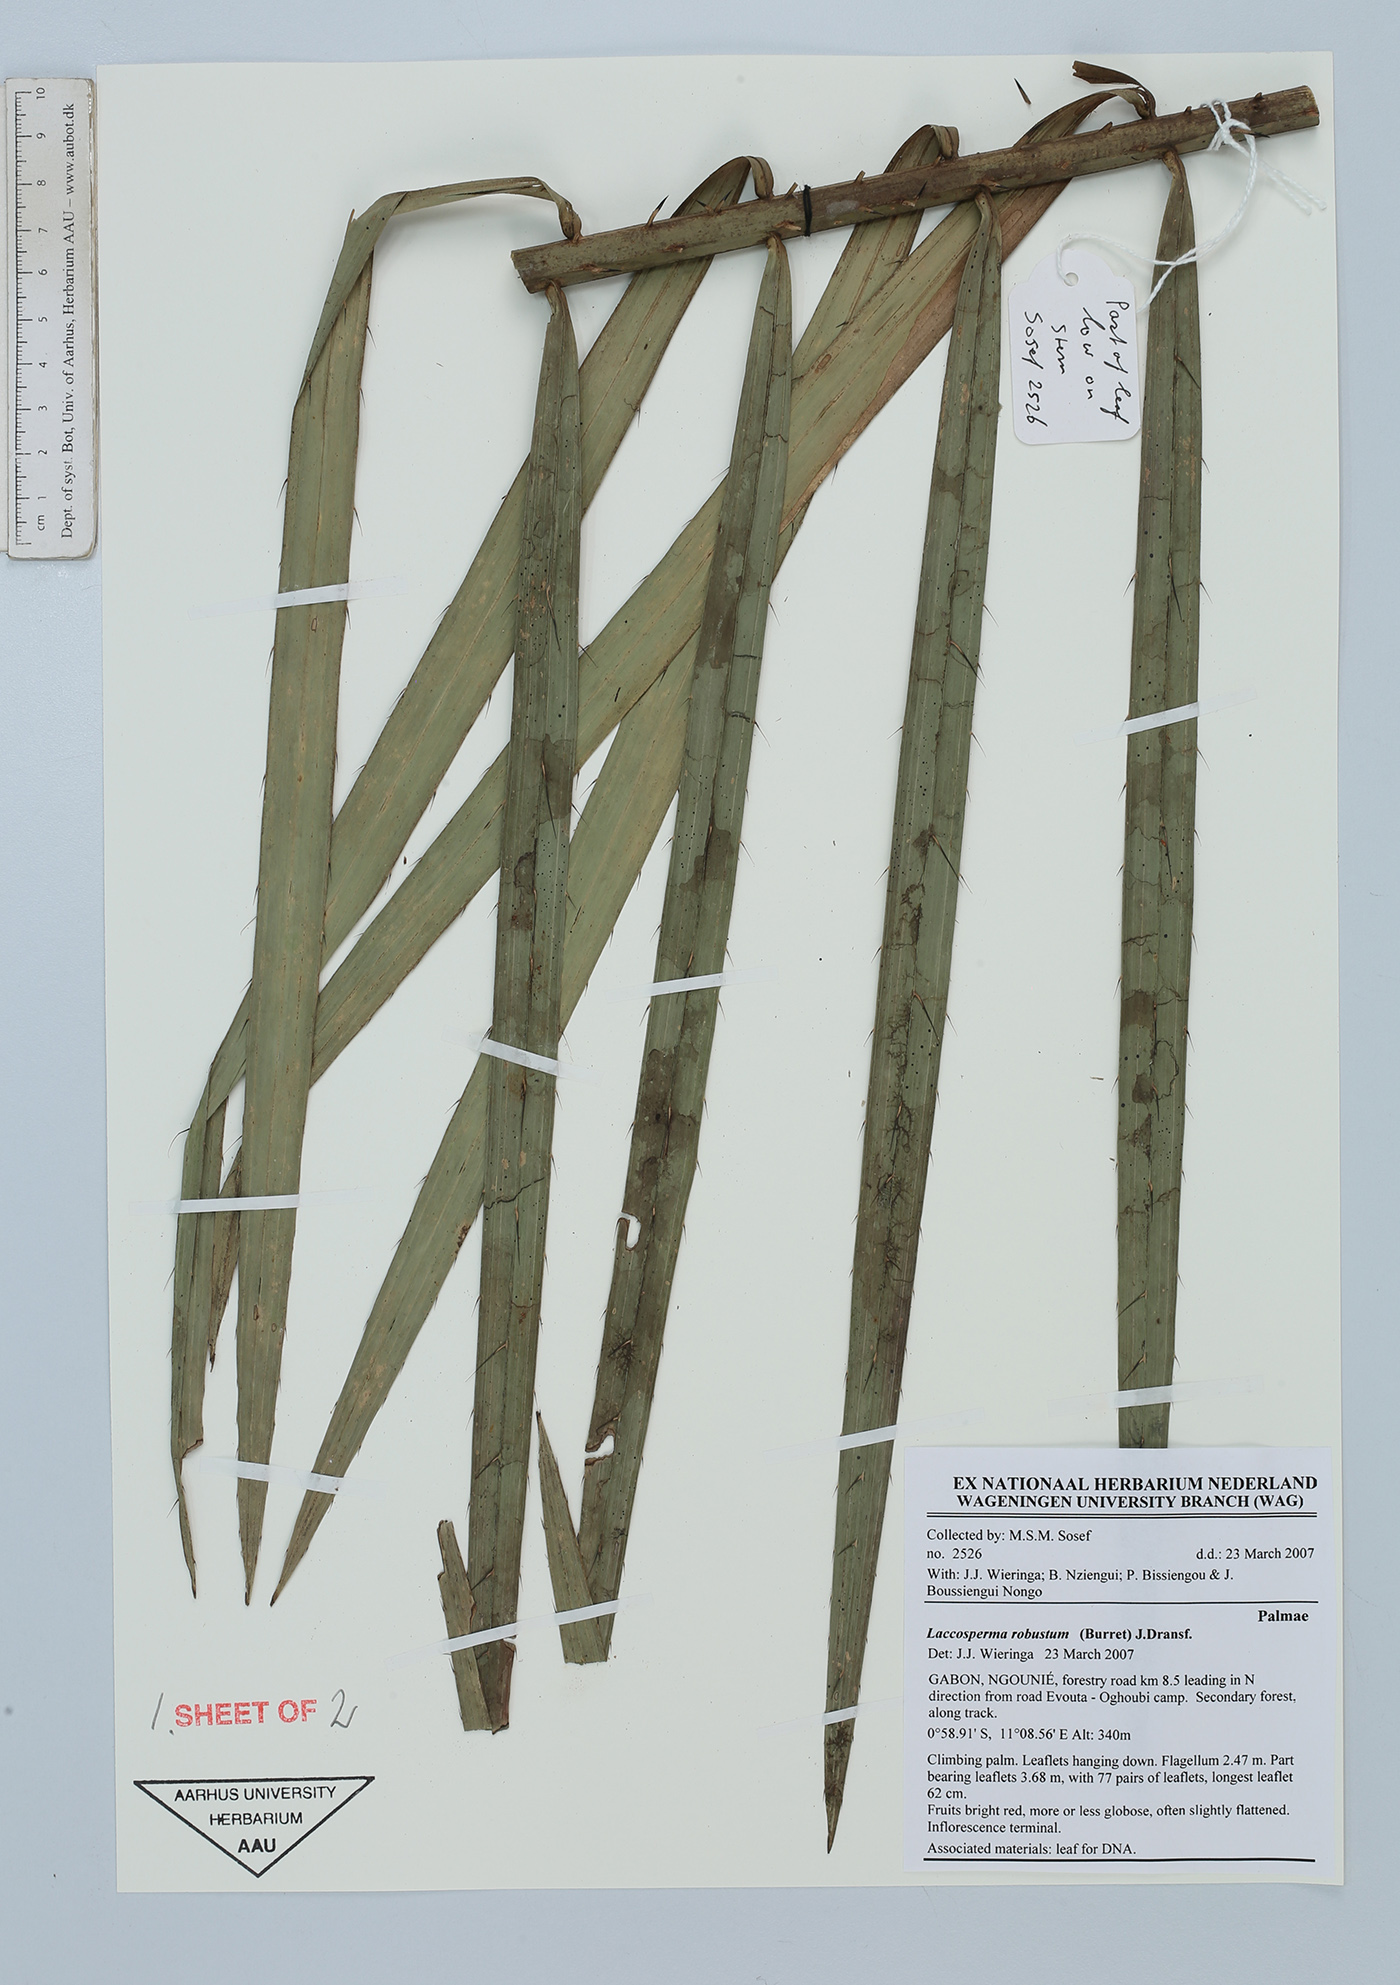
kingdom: Plantae
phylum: Tracheophyta
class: Liliopsida
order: Arecales
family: Arecaceae
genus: Laccosperma
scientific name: Laccosperma robustum
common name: Rattan
